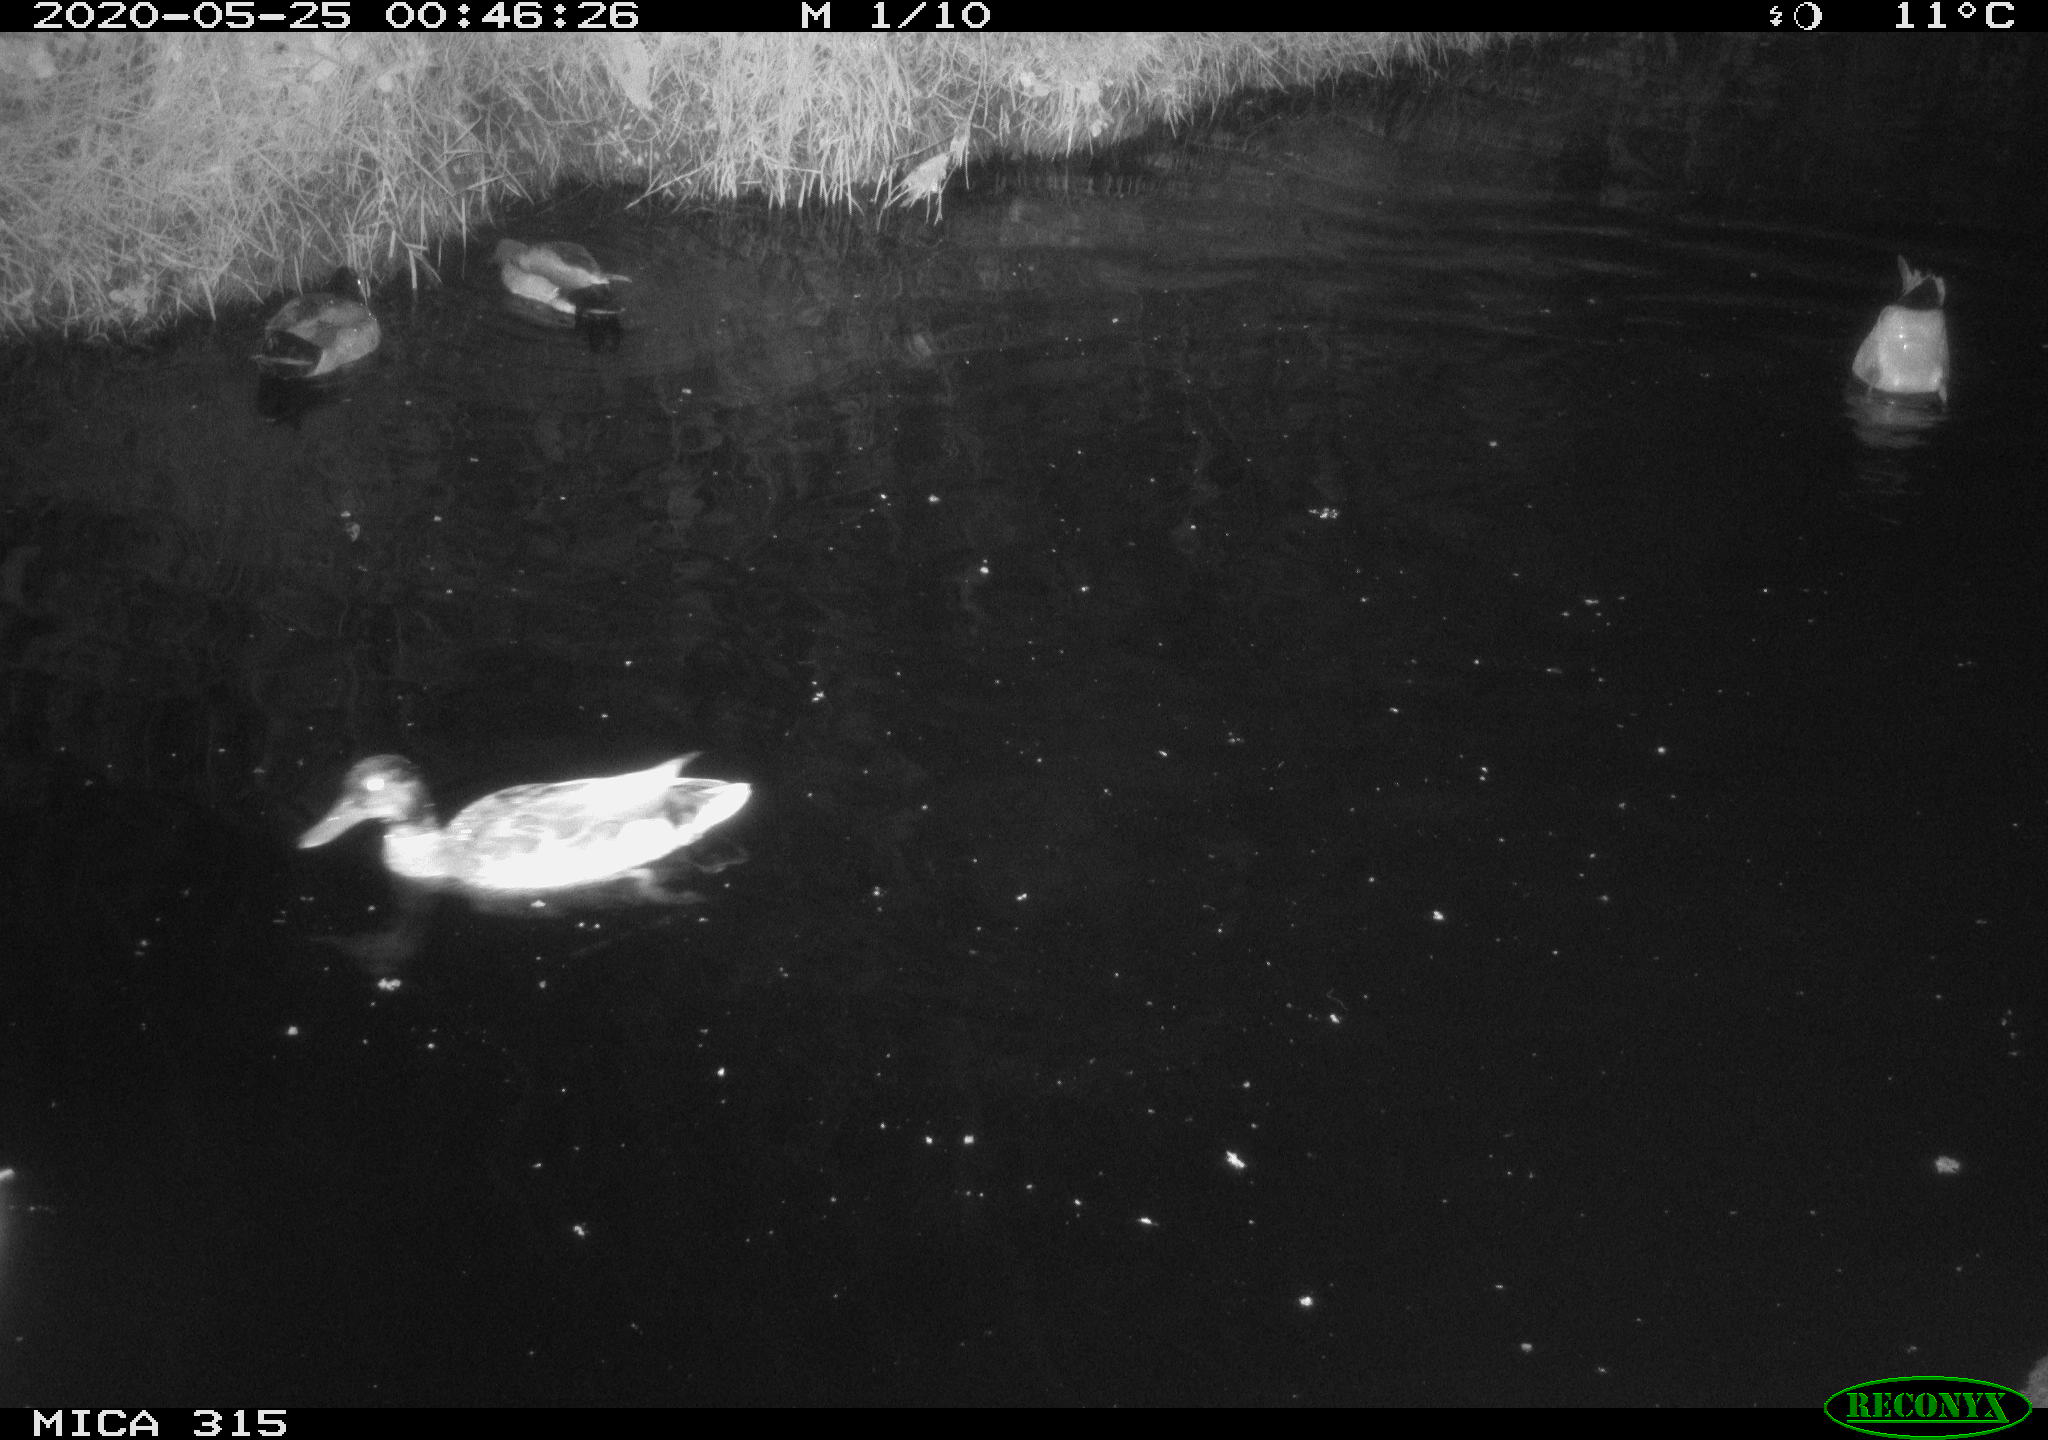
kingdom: Animalia
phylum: Chordata
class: Aves
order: Anseriformes
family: Anatidae
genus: Anas
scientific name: Anas platyrhynchos
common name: Mallard
